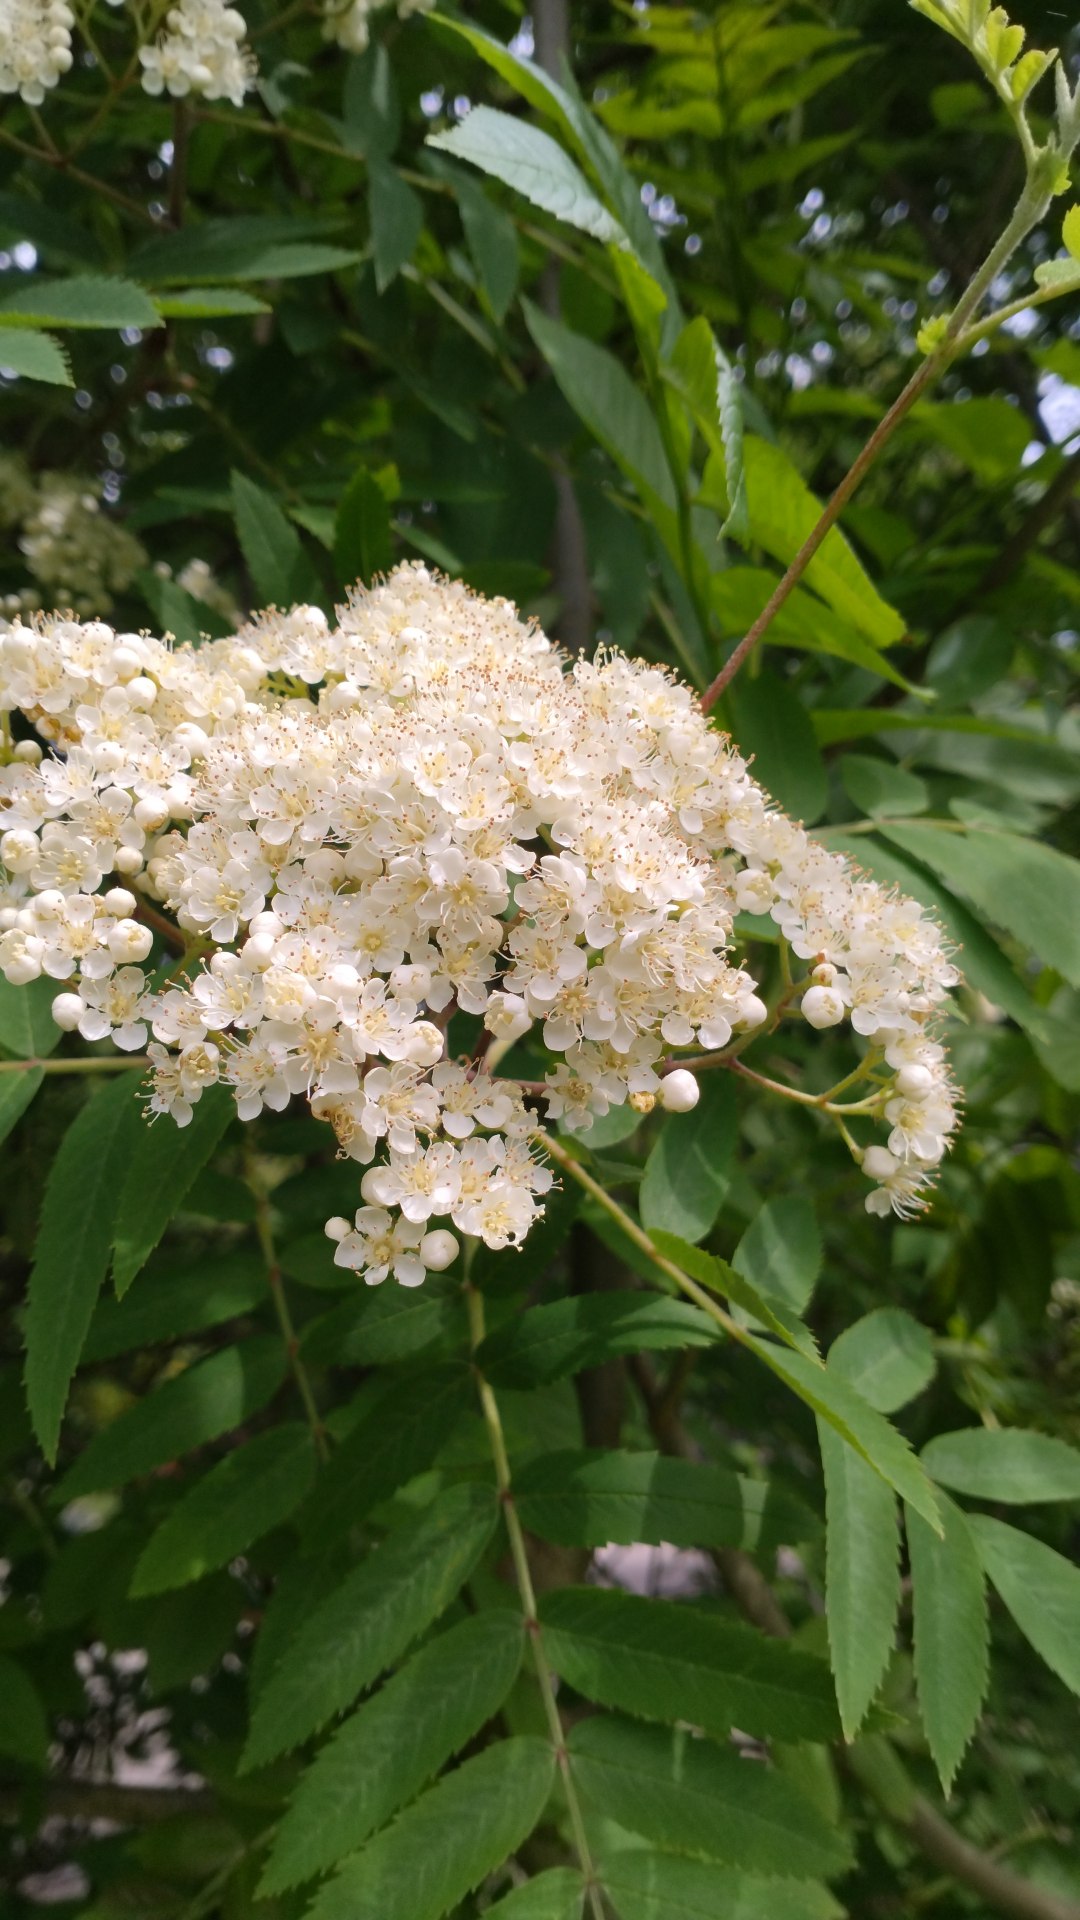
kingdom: Plantae
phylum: Tracheophyta
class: Magnoliopsida
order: Rosales
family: Rosaceae
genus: Sorbus
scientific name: Sorbus aucuparia
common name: Almindelig røn
